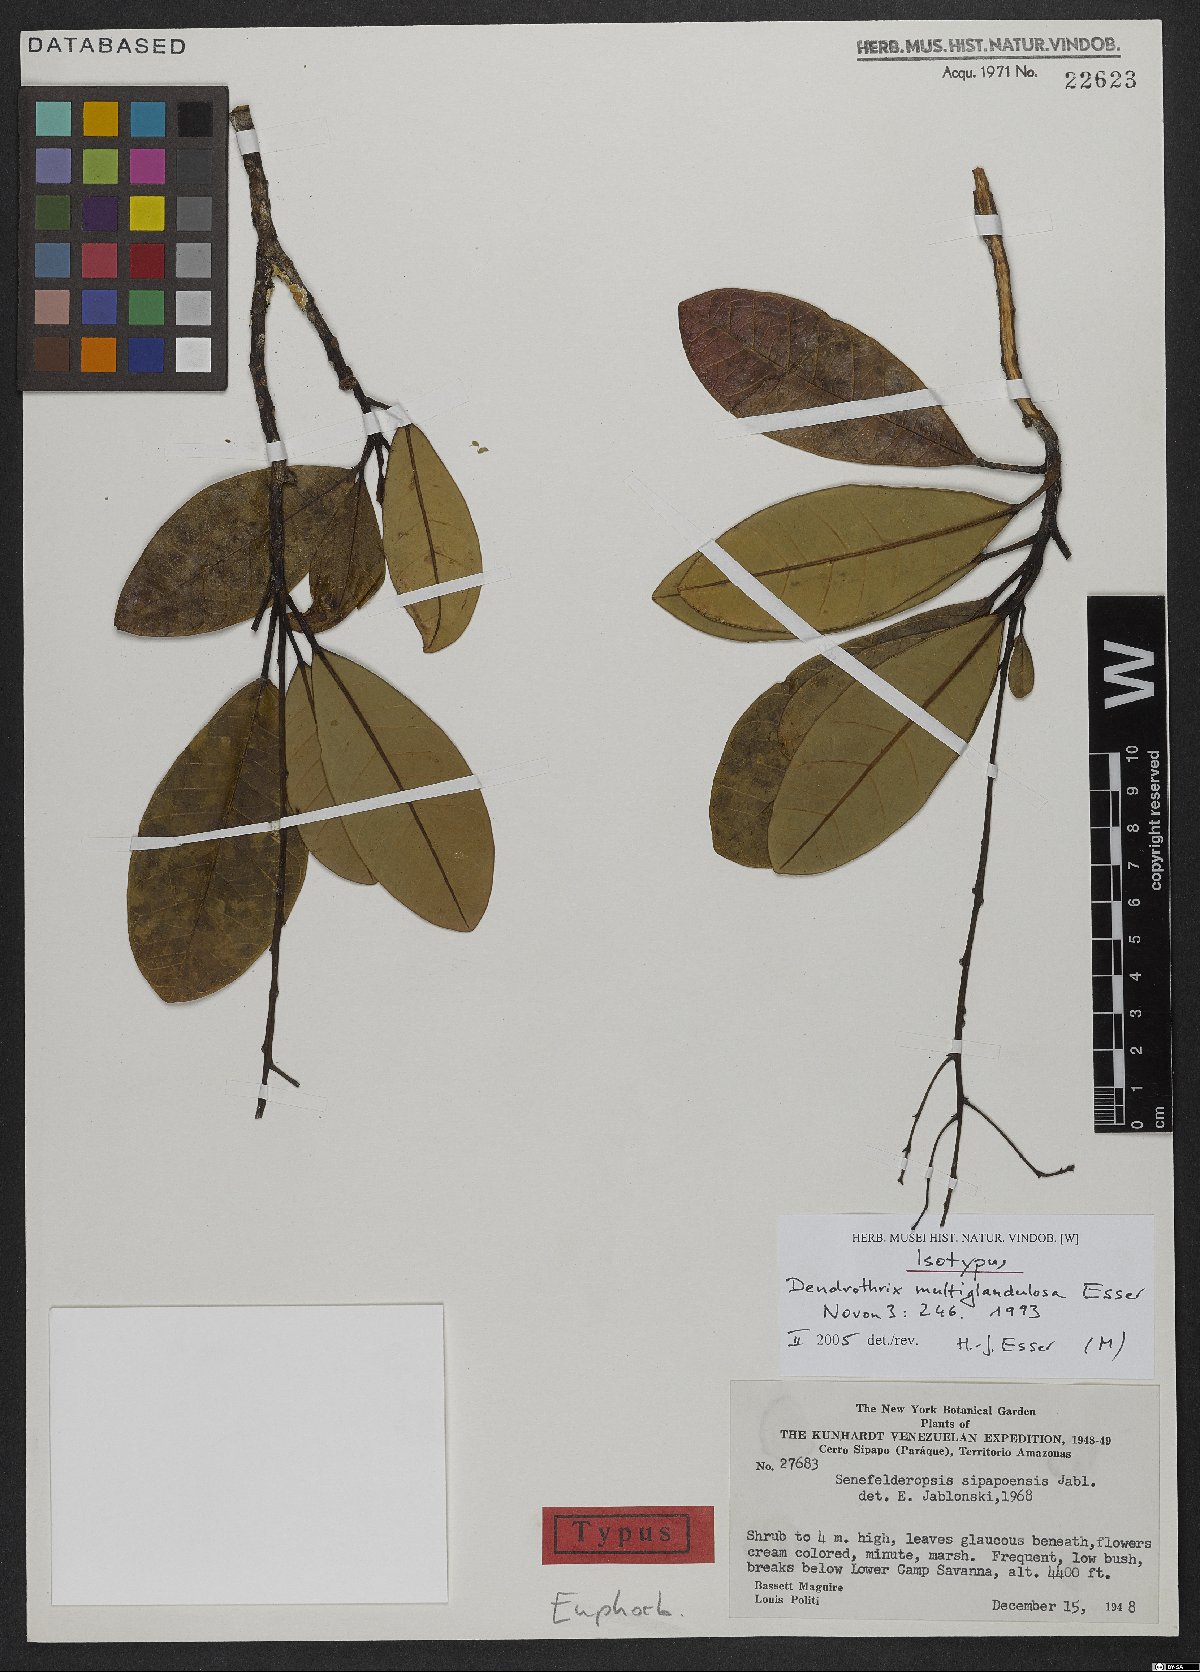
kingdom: Plantae
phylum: Tracheophyta
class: Magnoliopsida
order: Malpighiales
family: Euphorbiaceae
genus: Dendrothrix
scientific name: Dendrothrix multiglandulosa
